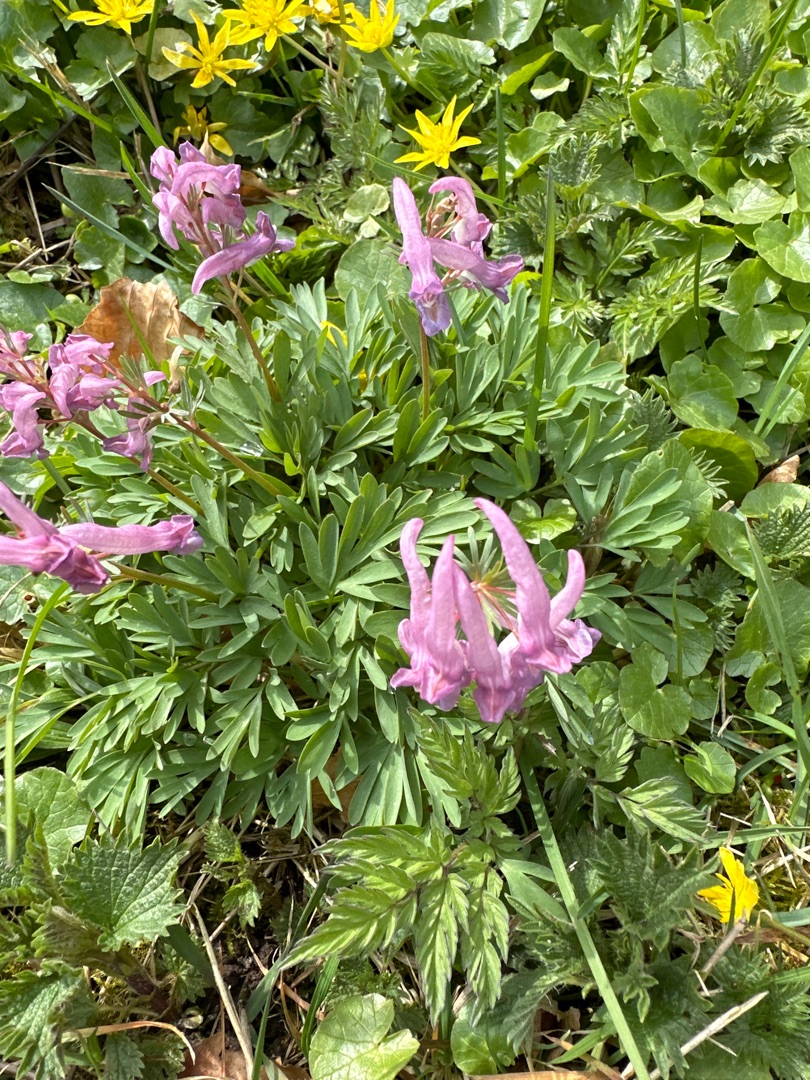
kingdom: Plantae
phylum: Tracheophyta
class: Magnoliopsida
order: Ranunculales
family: Papaveraceae
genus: Corydalis
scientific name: Corydalis solida
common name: Langstilket lærkespore
